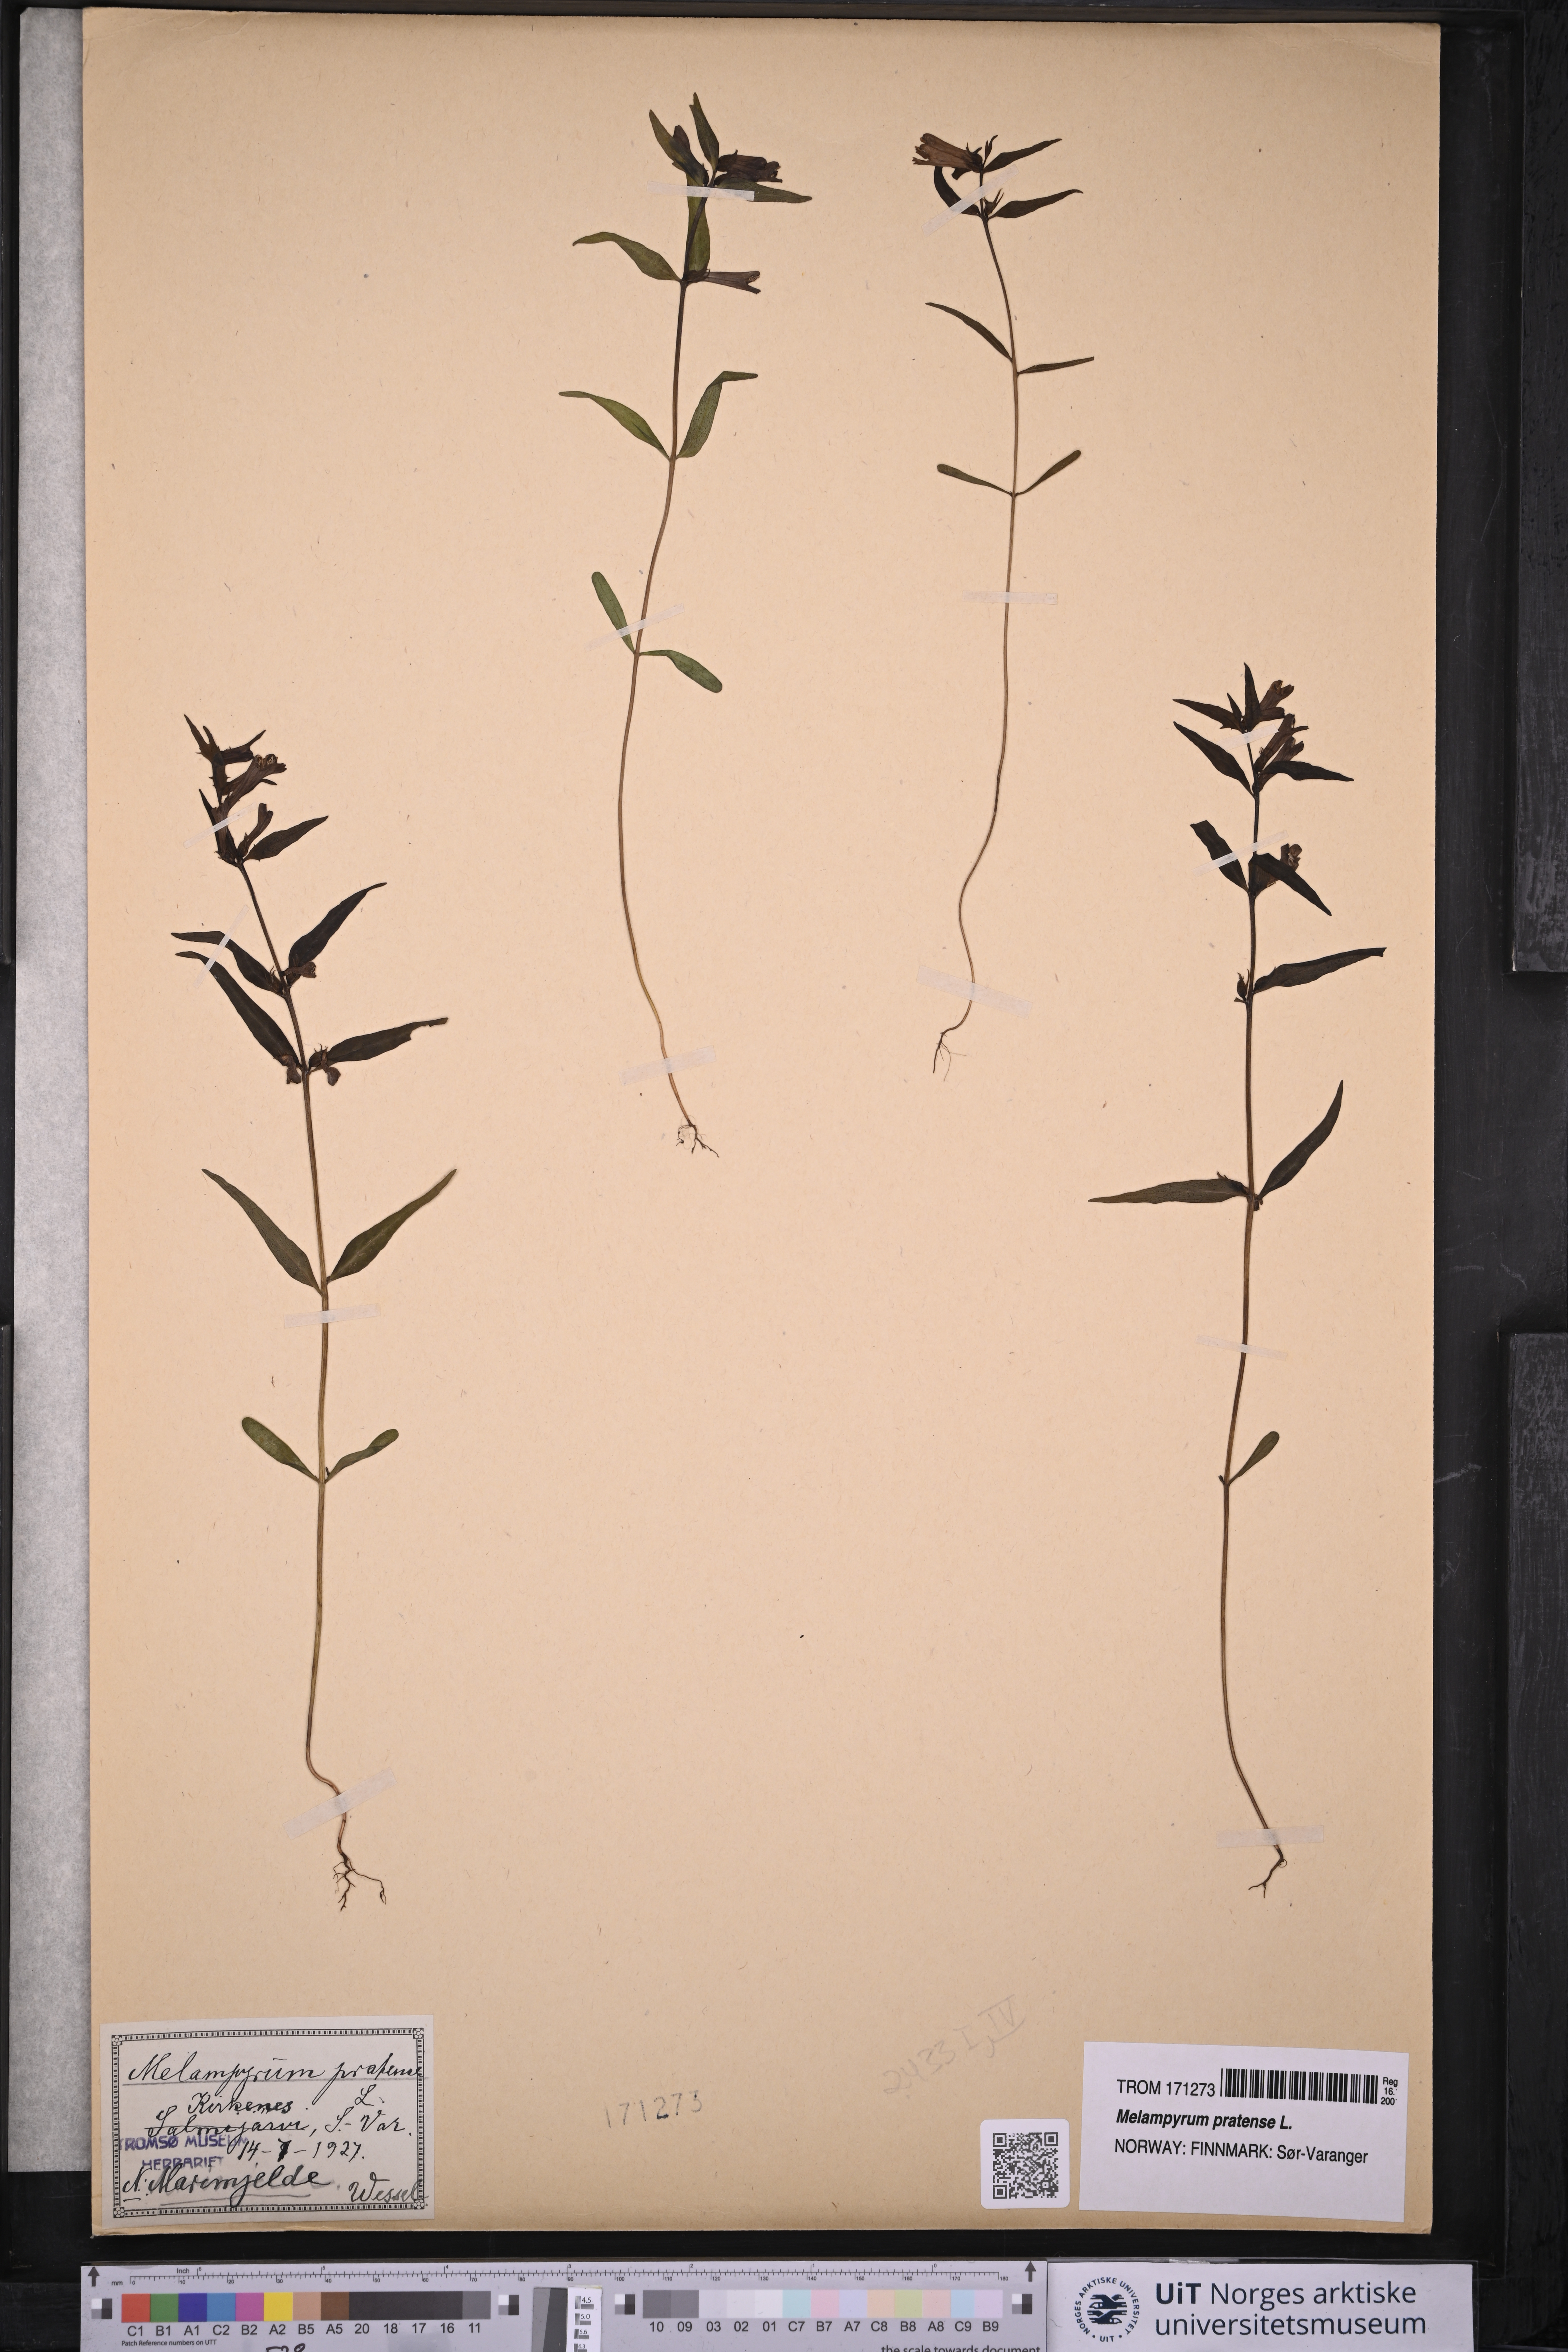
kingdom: Plantae
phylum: Tracheophyta
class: Magnoliopsida
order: Lamiales
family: Orobanchaceae
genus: Melampyrum
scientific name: Melampyrum pratense
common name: Common cow-wheat
